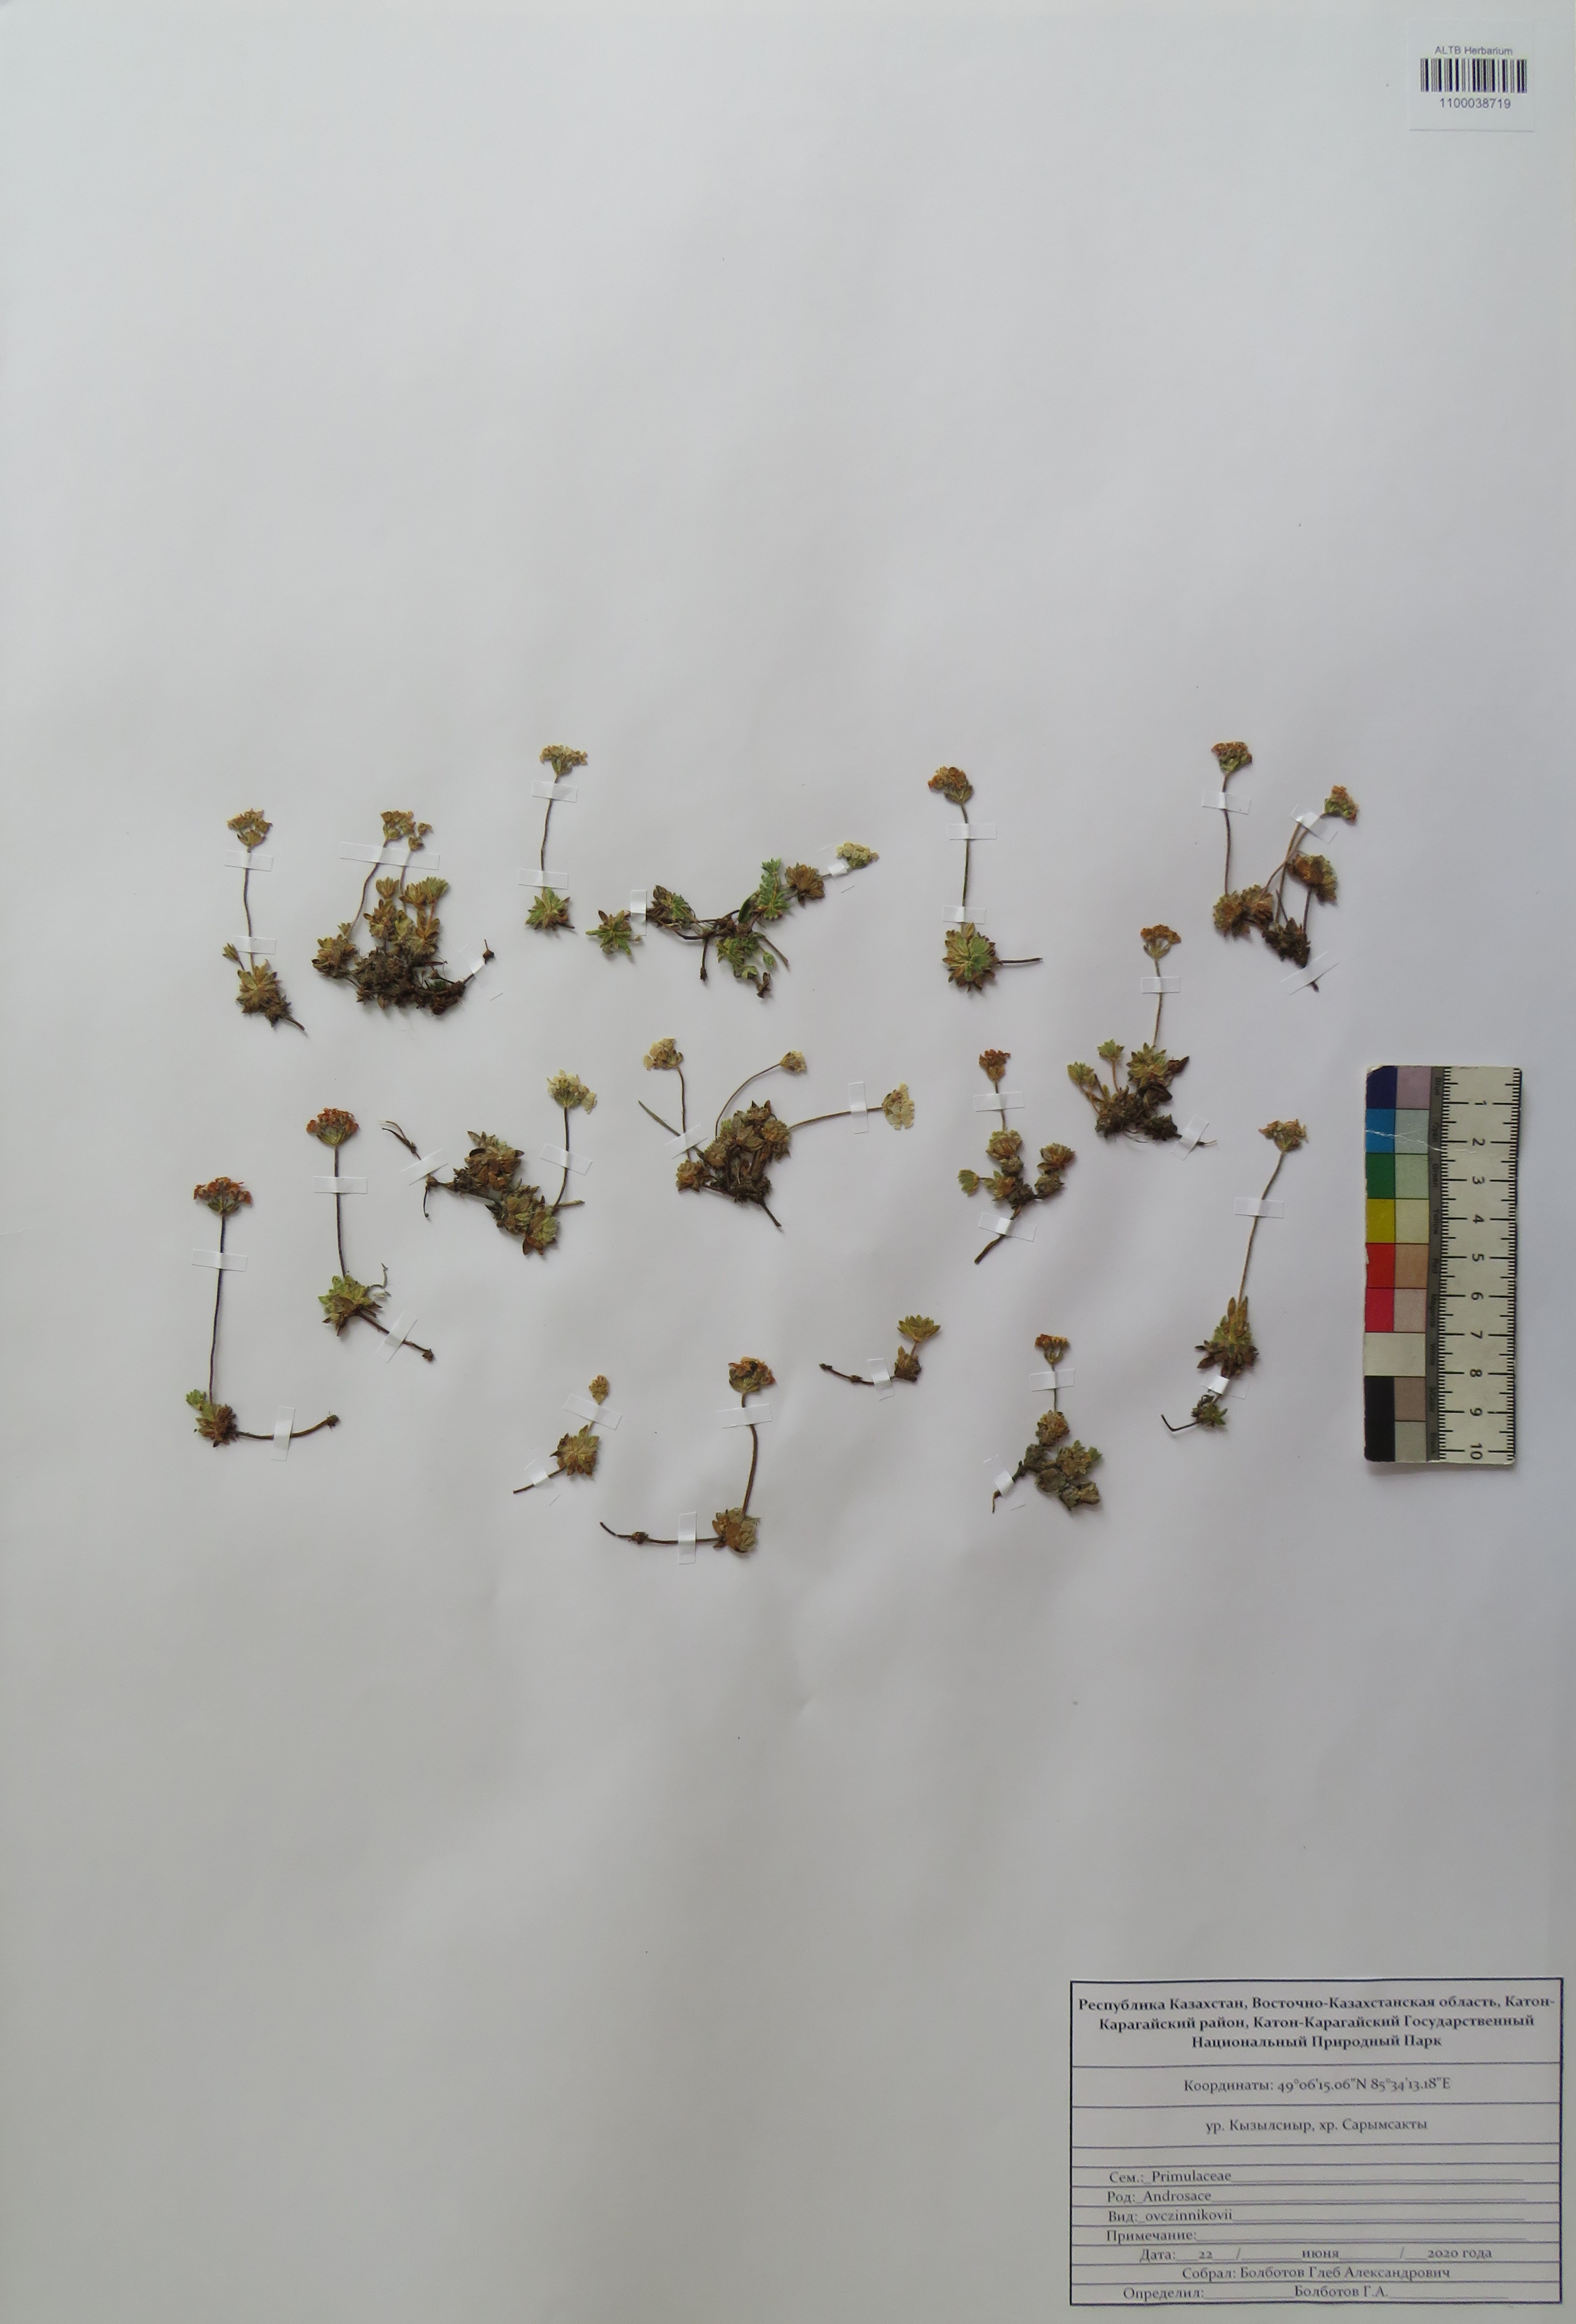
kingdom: Plantae
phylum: Tracheophyta
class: Magnoliopsida
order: Ericales
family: Primulaceae
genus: Androsace
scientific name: Androsace ovczinnikovii
